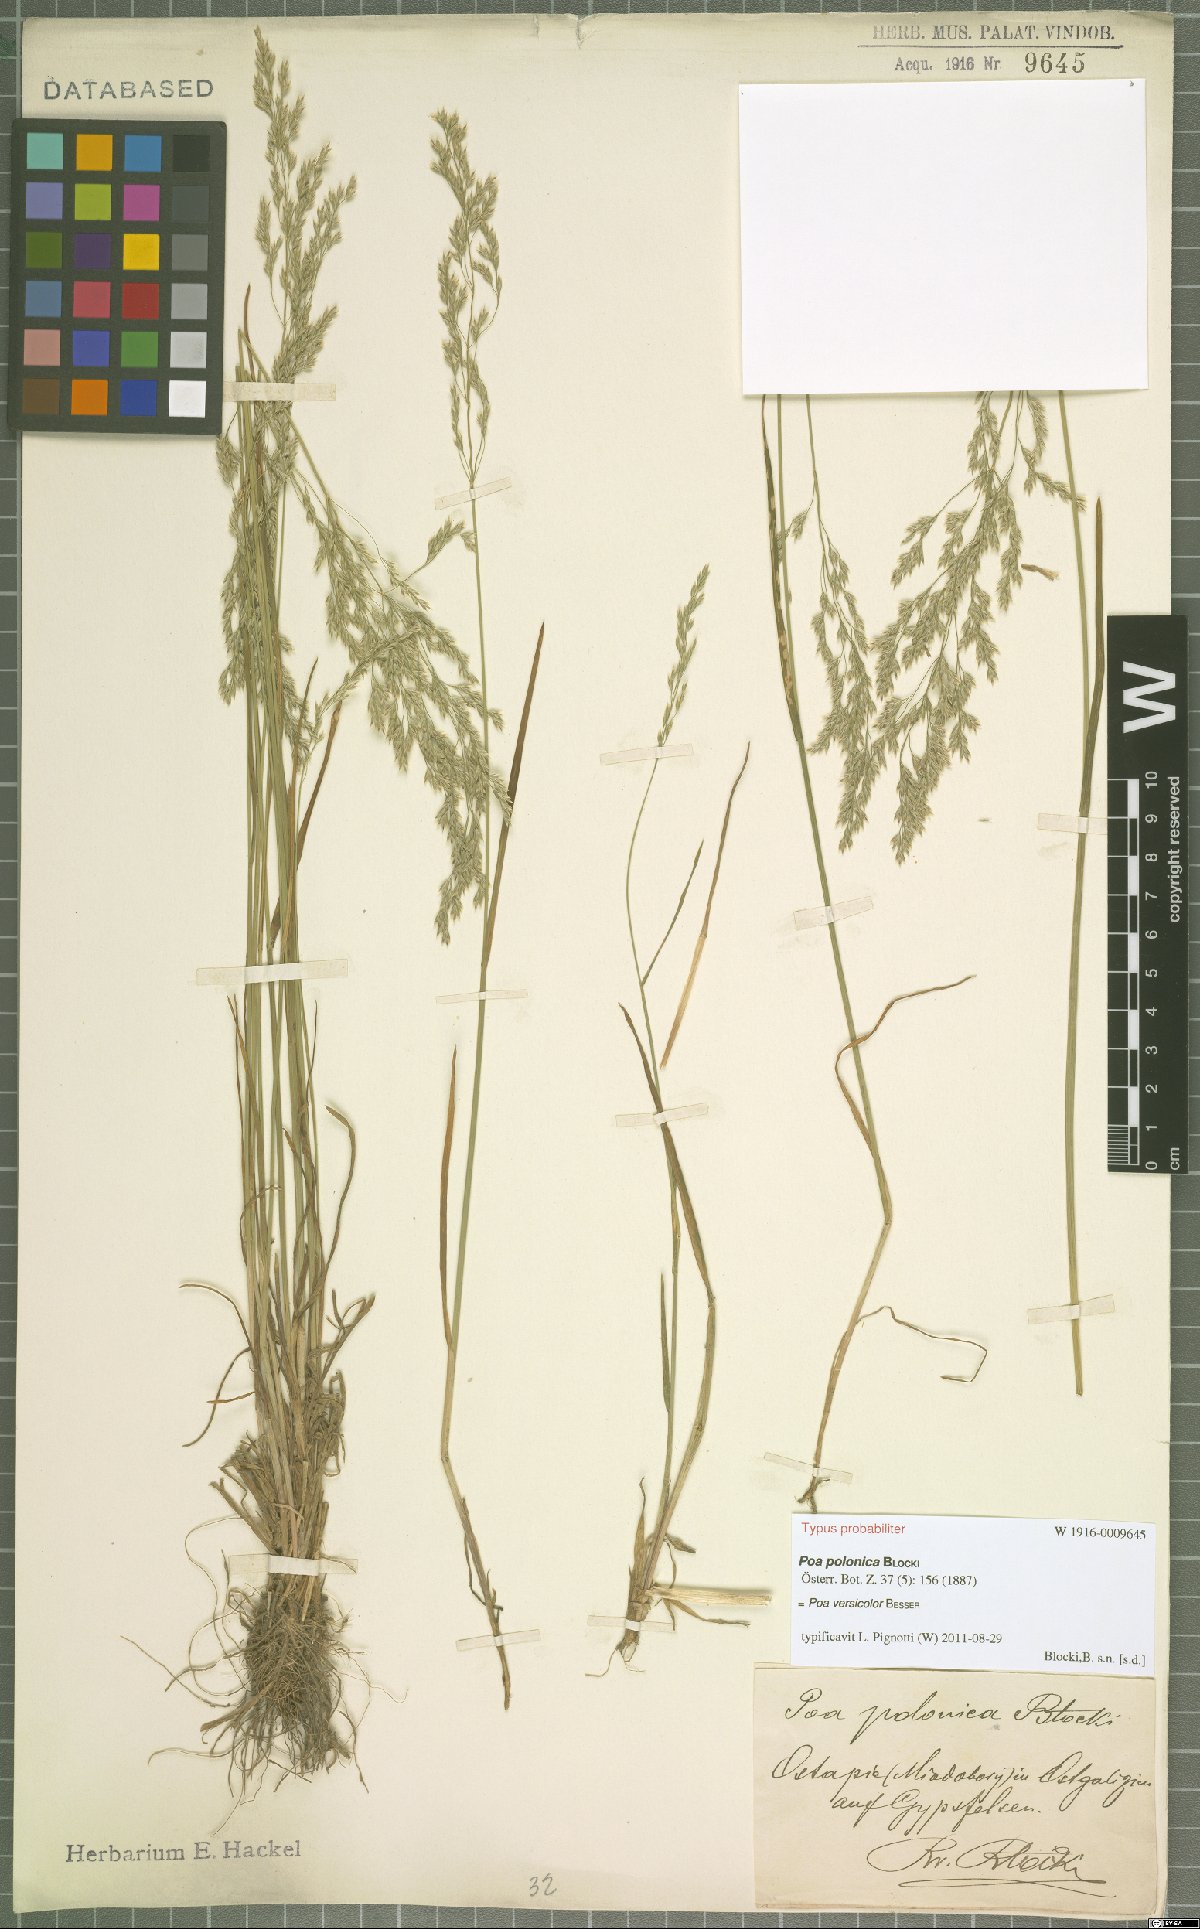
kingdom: Plantae
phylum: Tracheophyta
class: Liliopsida
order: Poales
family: Poaceae
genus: Poa
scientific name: Poa versicolor
